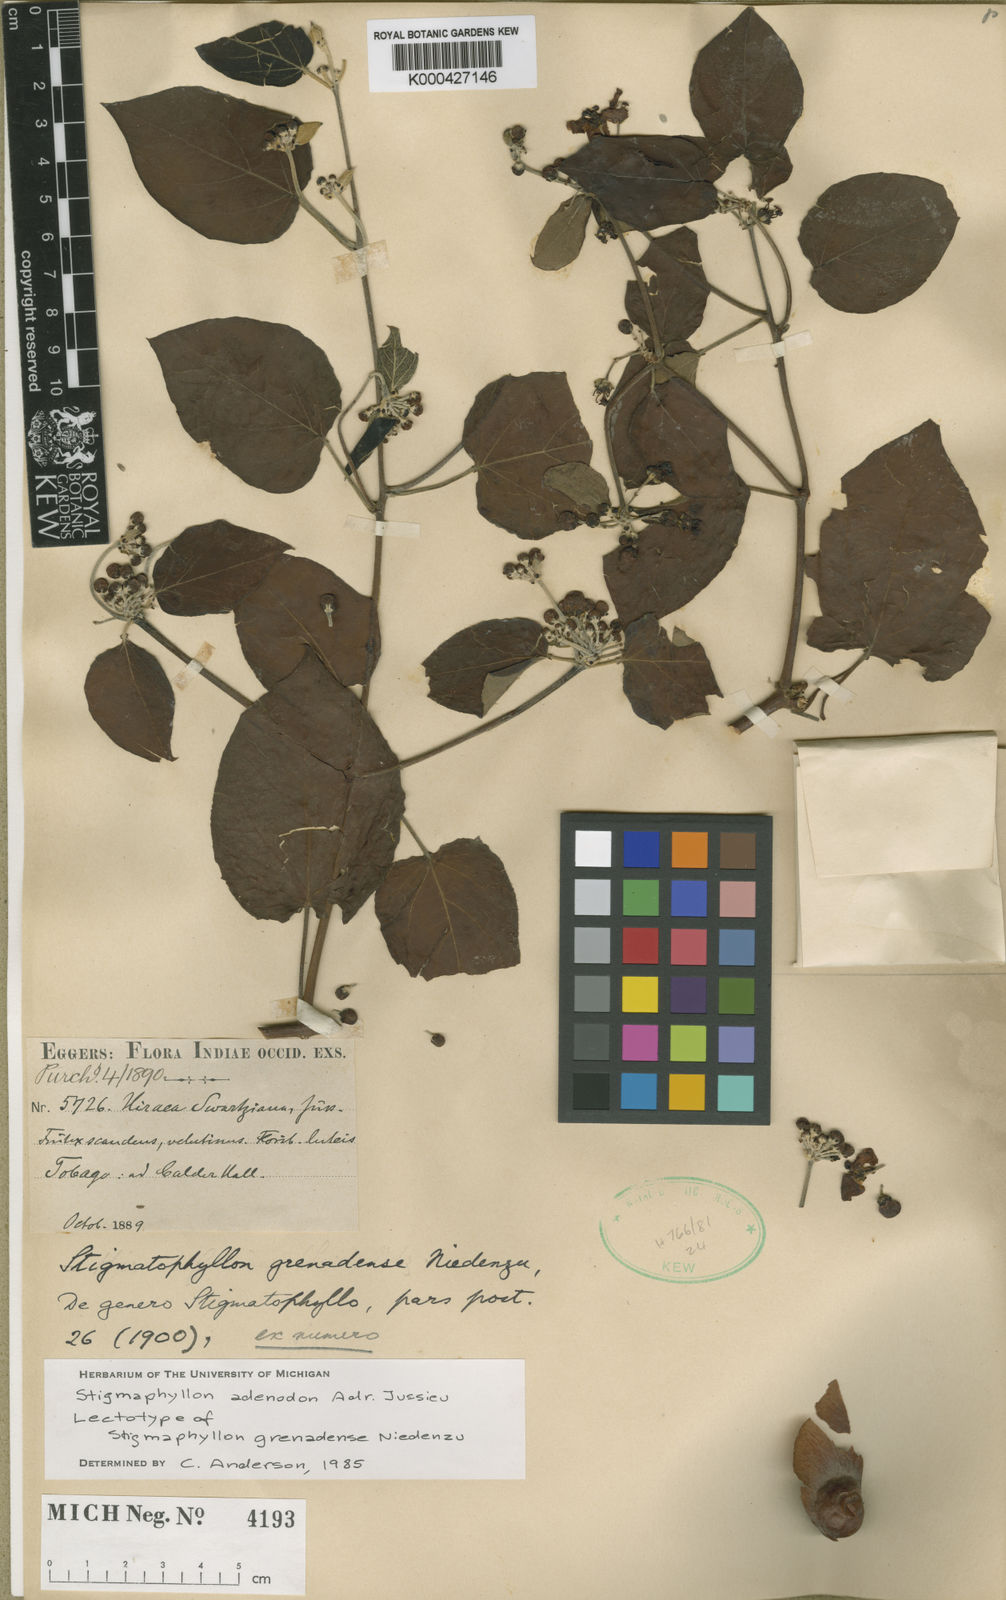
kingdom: Plantae
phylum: Tracheophyta
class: Magnoliopsida
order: Malpighiales
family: Malpighiaceae
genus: Stigmaphyllon
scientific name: Stigmaphyllon adenodon
